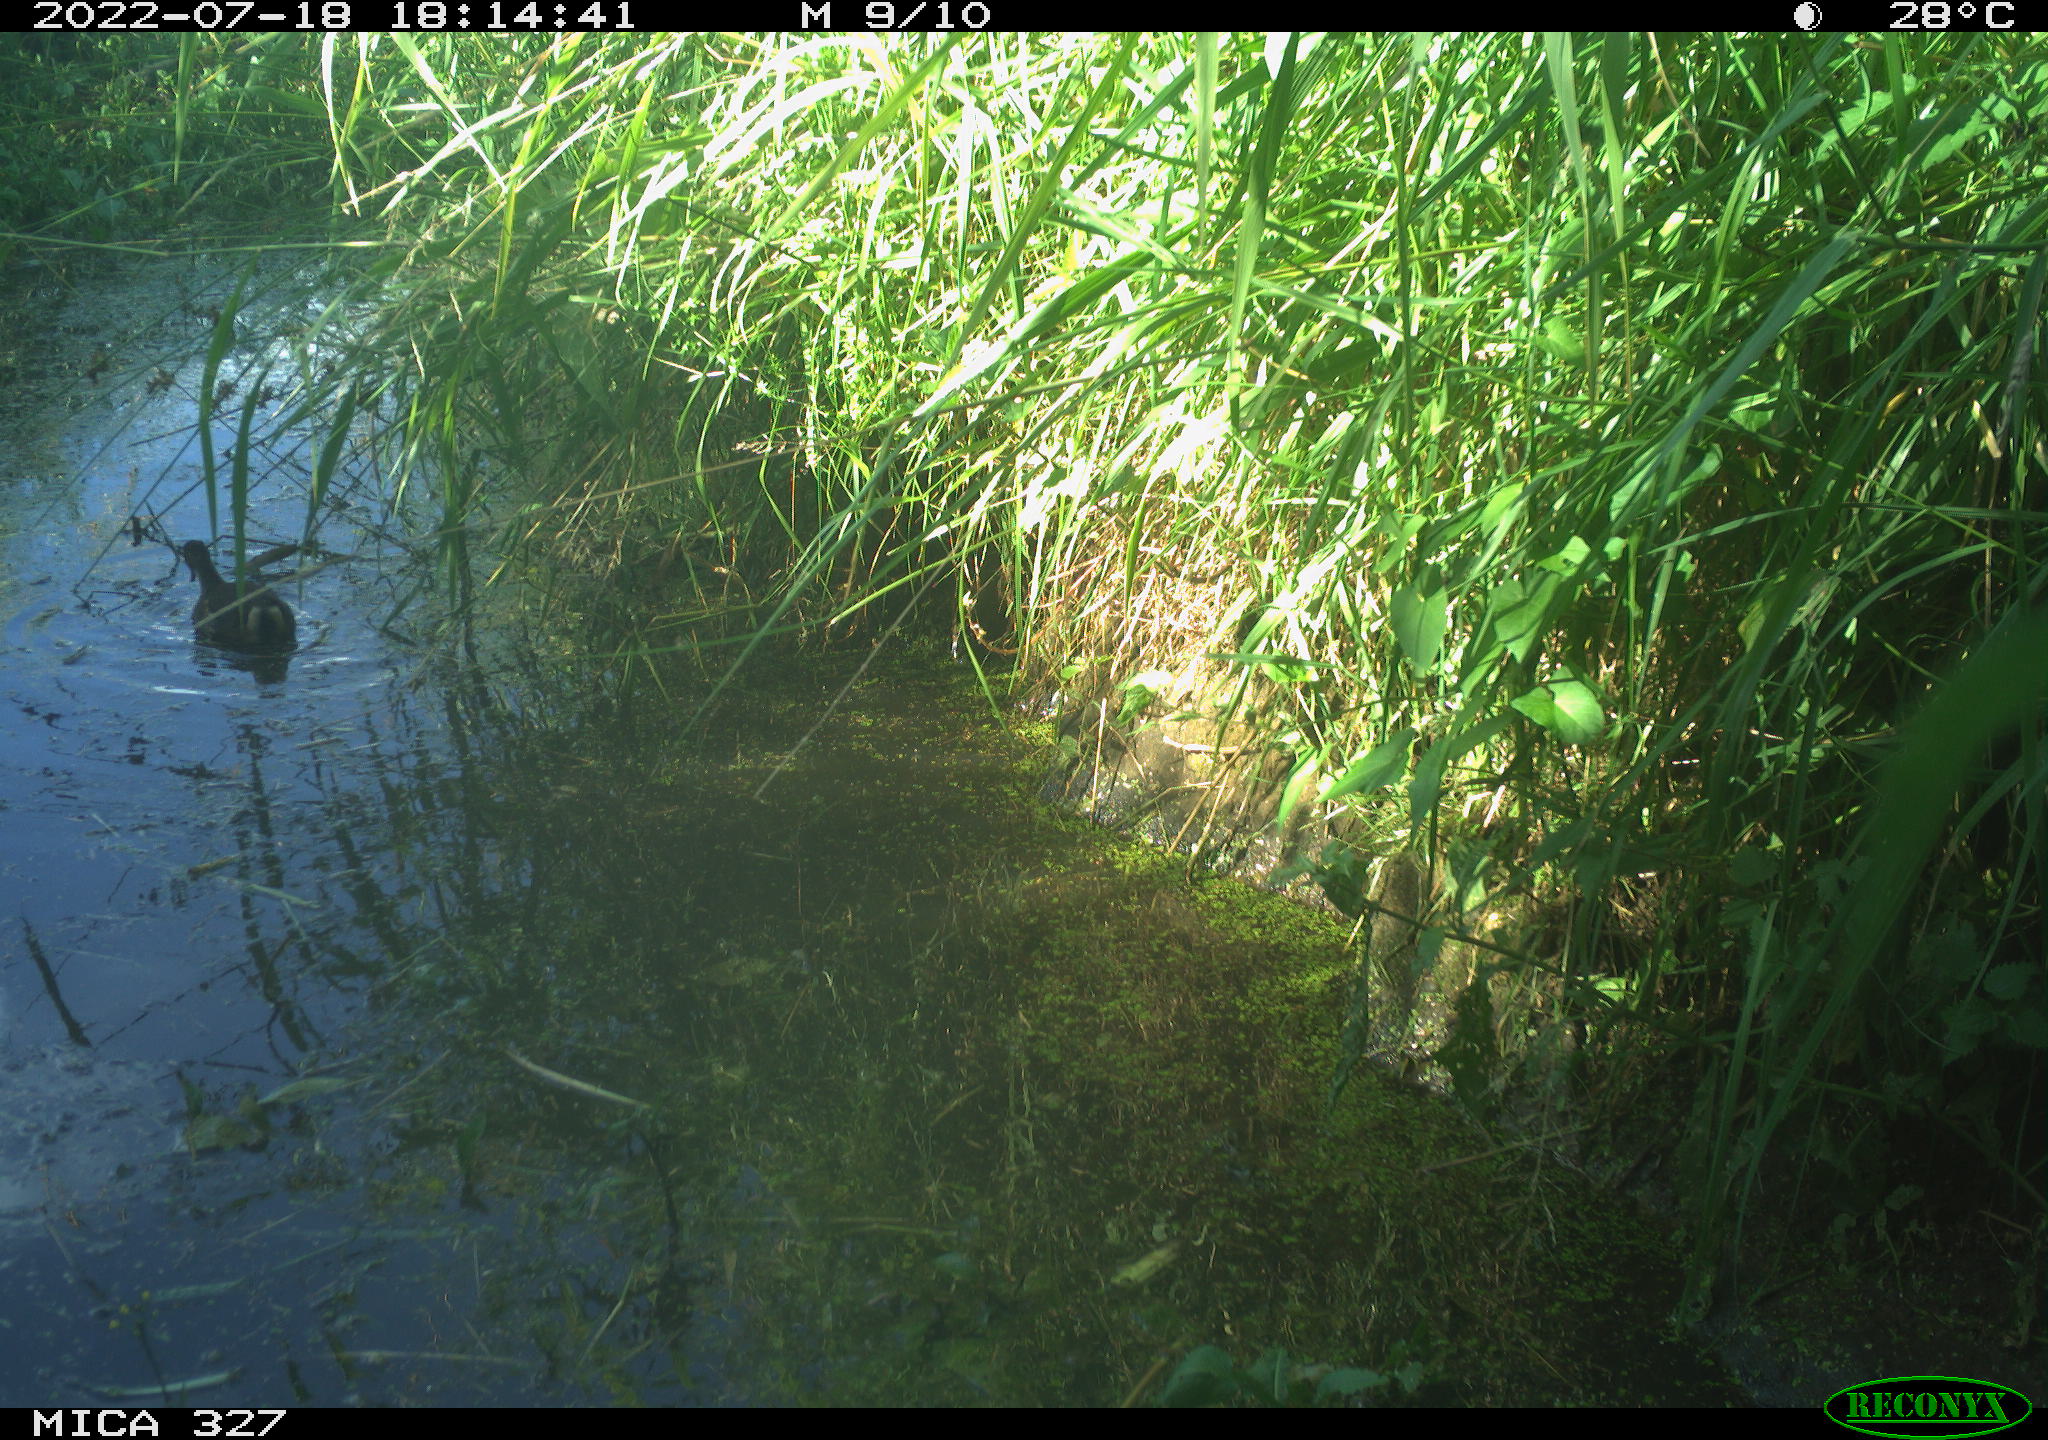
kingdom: Animalia
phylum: Chordata
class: Aves
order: Gruiformes
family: Rallidae
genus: Gallinula
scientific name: Gallinula chloropus
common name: Common moorhen
